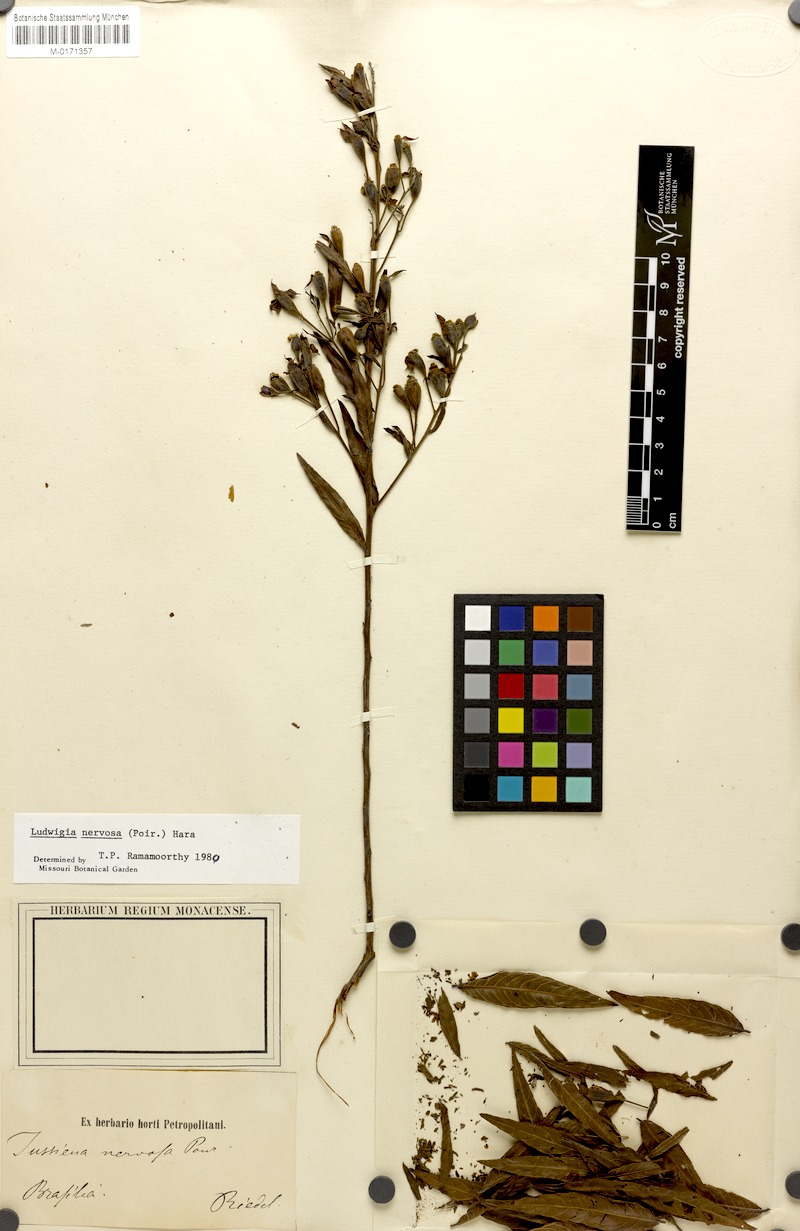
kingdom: Plantae
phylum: Tracheophyta
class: Magnoliopsida
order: Myrtales
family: Onagraceae
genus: Ludwigia
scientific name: Ludwigia nervosa
